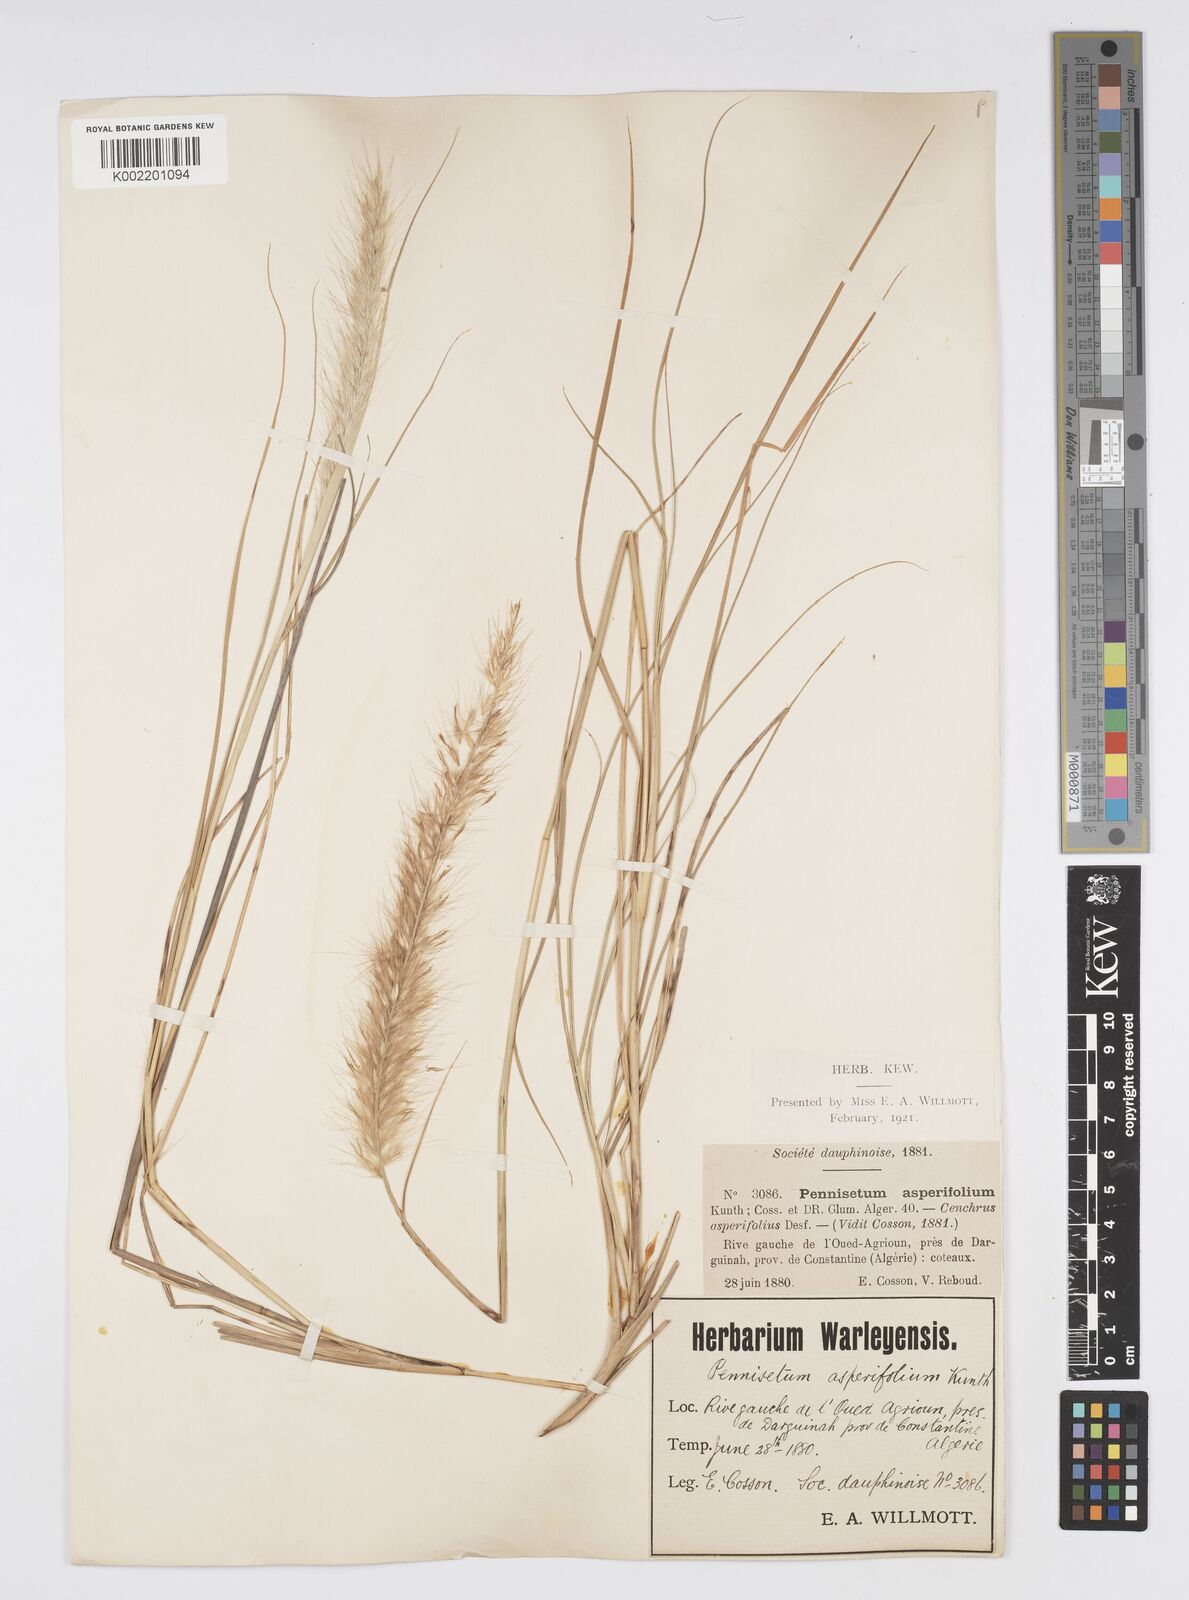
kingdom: Plantae
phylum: Tracheophyta
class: Liliopsida
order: Poales
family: Poaceae
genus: Cenchrus
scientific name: Cenchrus setaceus
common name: Crimson fountaingrass
